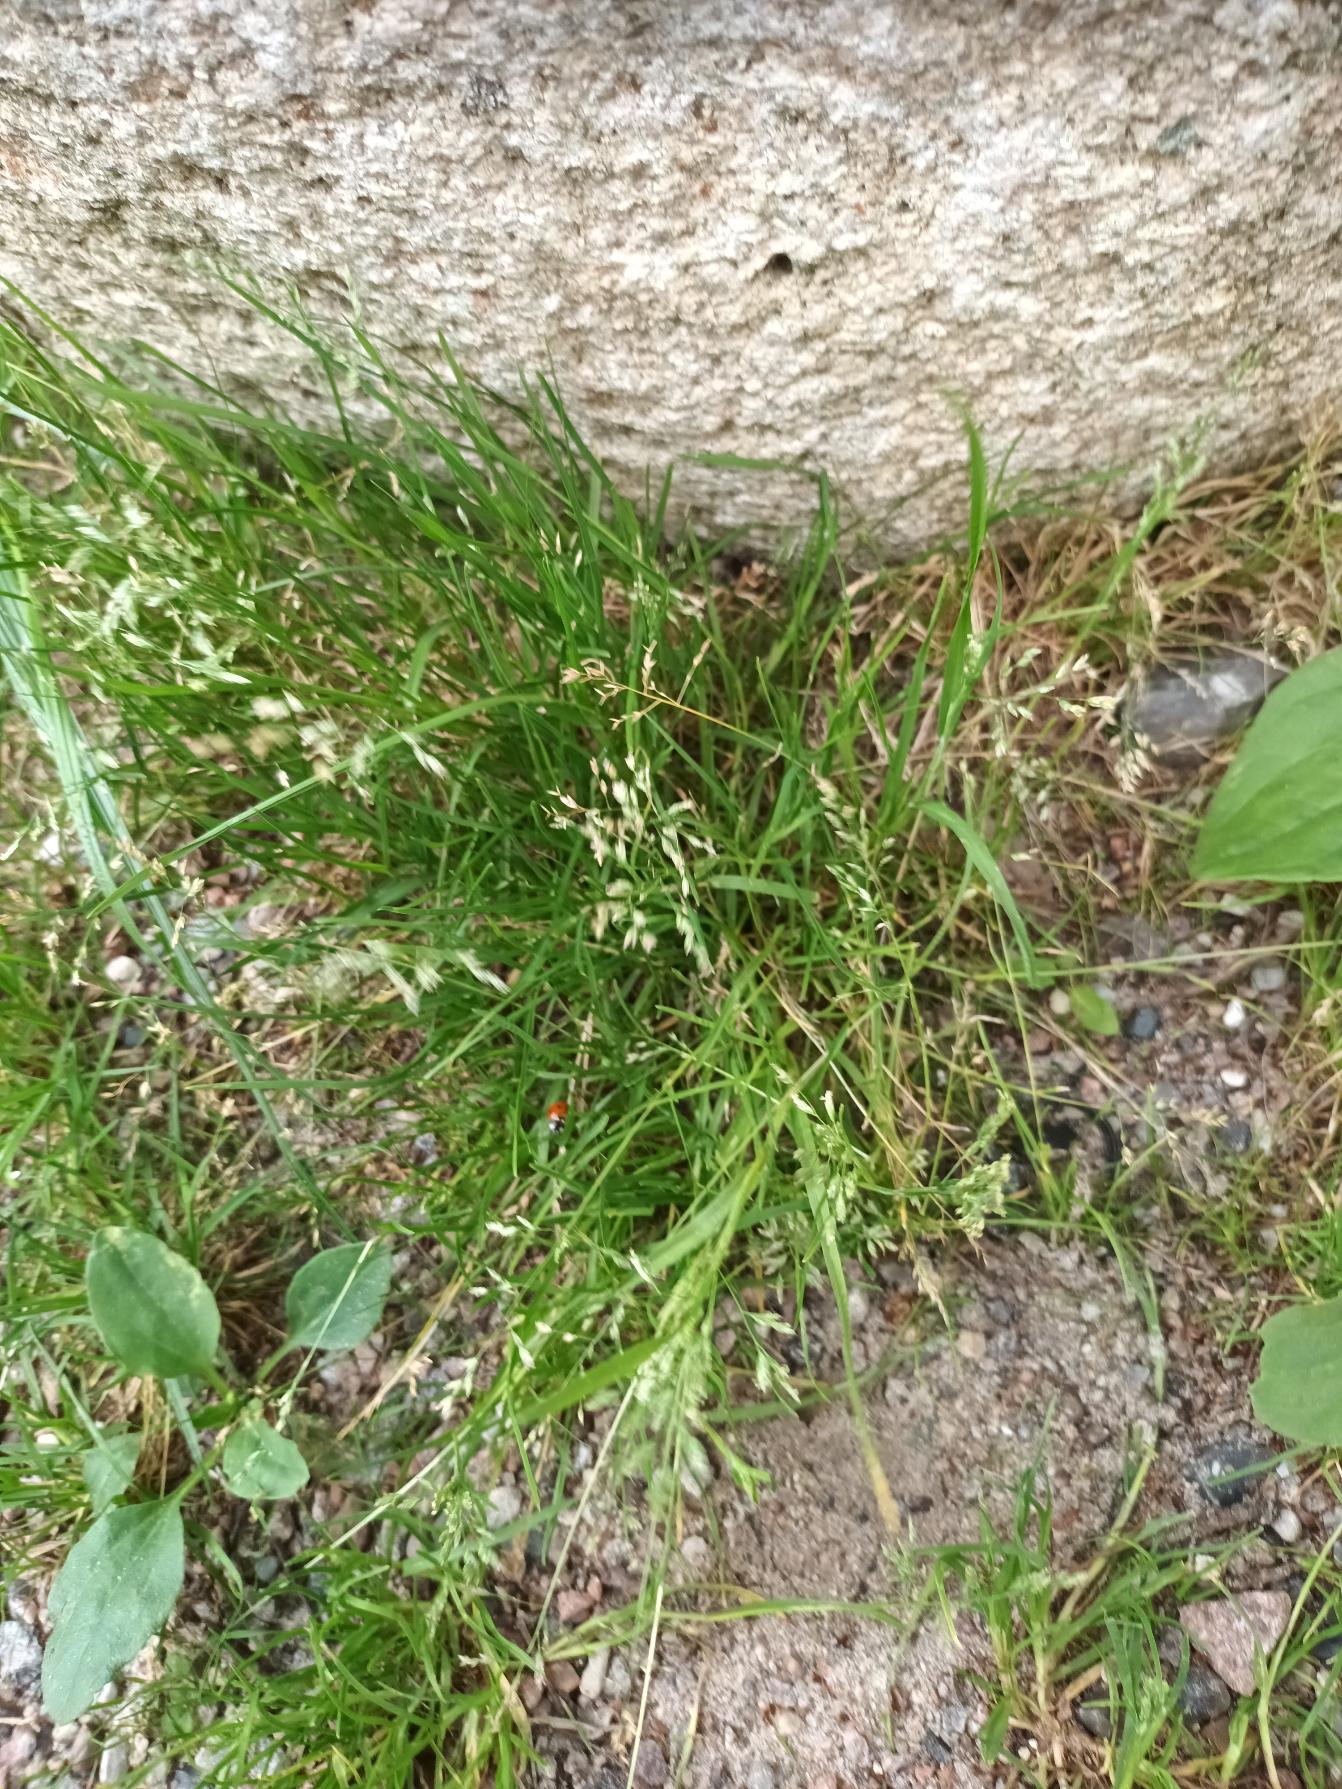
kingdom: Plantae
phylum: Tracheophyta
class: Liliopsida
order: Poales
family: Poaceae
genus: Poa
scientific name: Poa annua
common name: Enårig rapgræs
